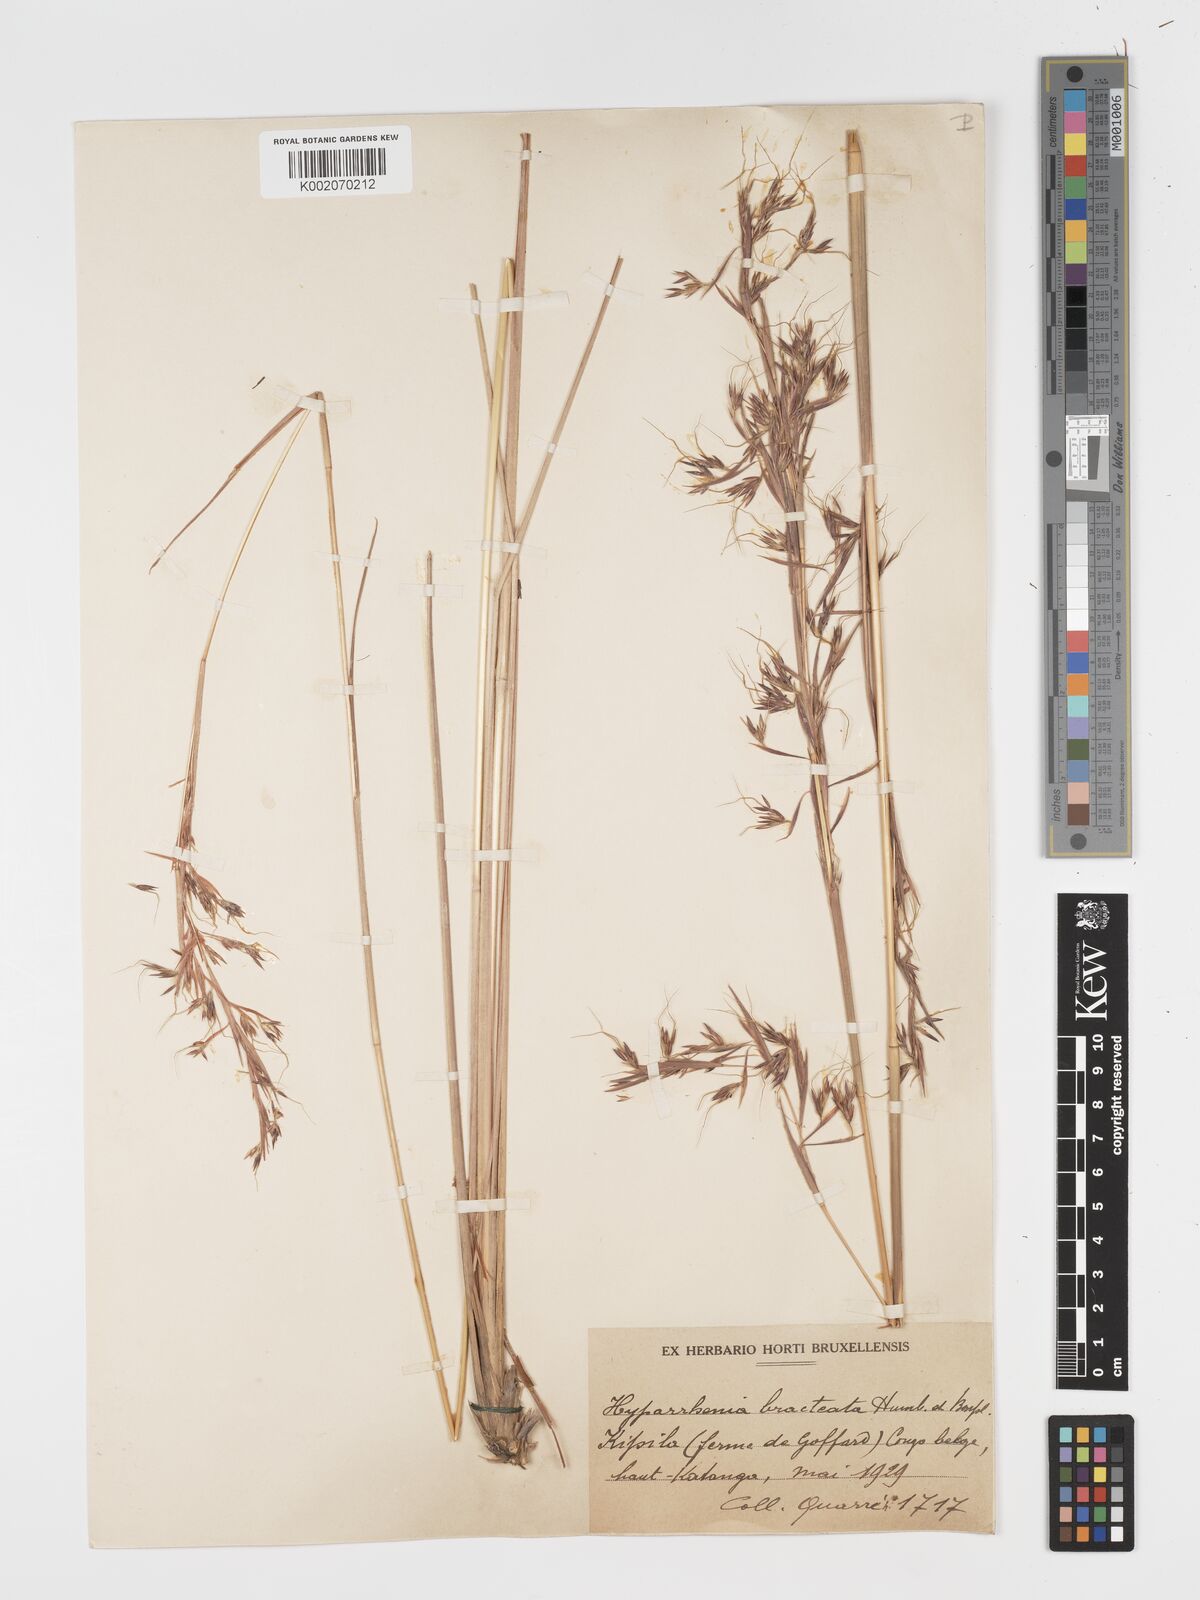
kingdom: Plantae
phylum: Tracheophyta
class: Liliopsida
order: Poales
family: Poaceae
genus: Hyparrhenia
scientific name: Hyparrhenia bracteata
